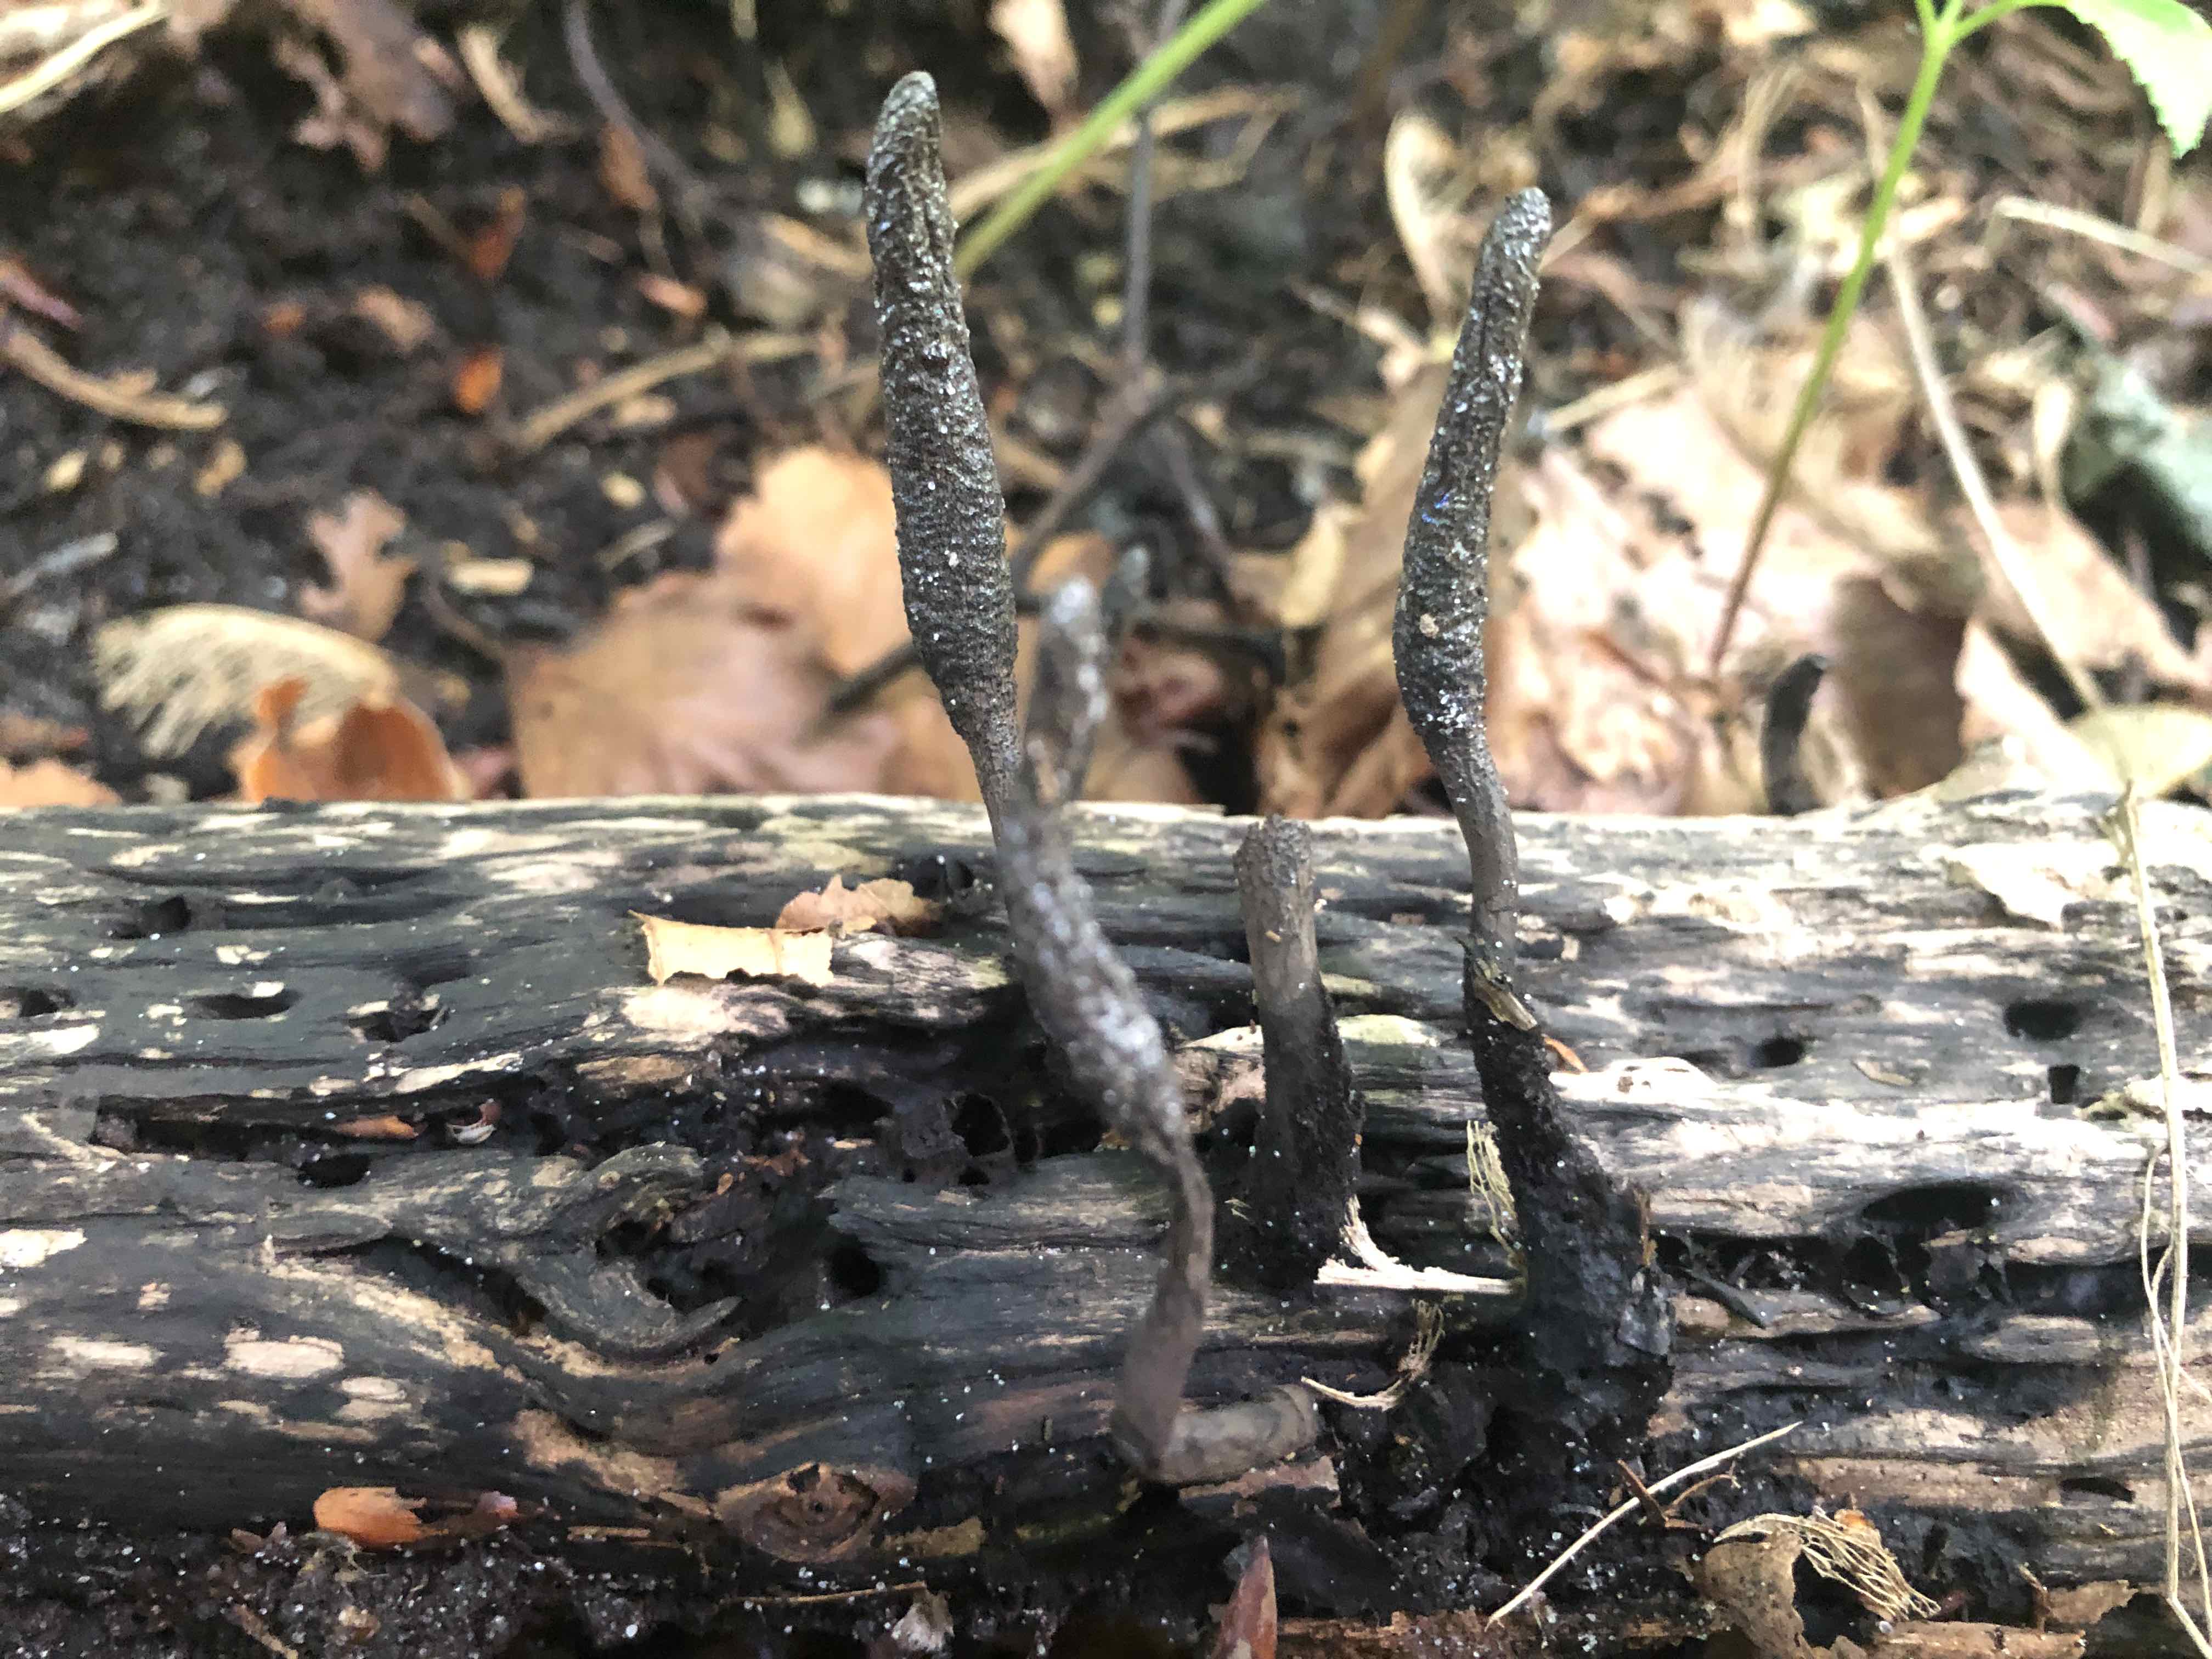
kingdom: Fungi
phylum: Ascomycota
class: Sordariomycetes
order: Xylariales
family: Xylariaceae
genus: Xylaria
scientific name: Xylaria
